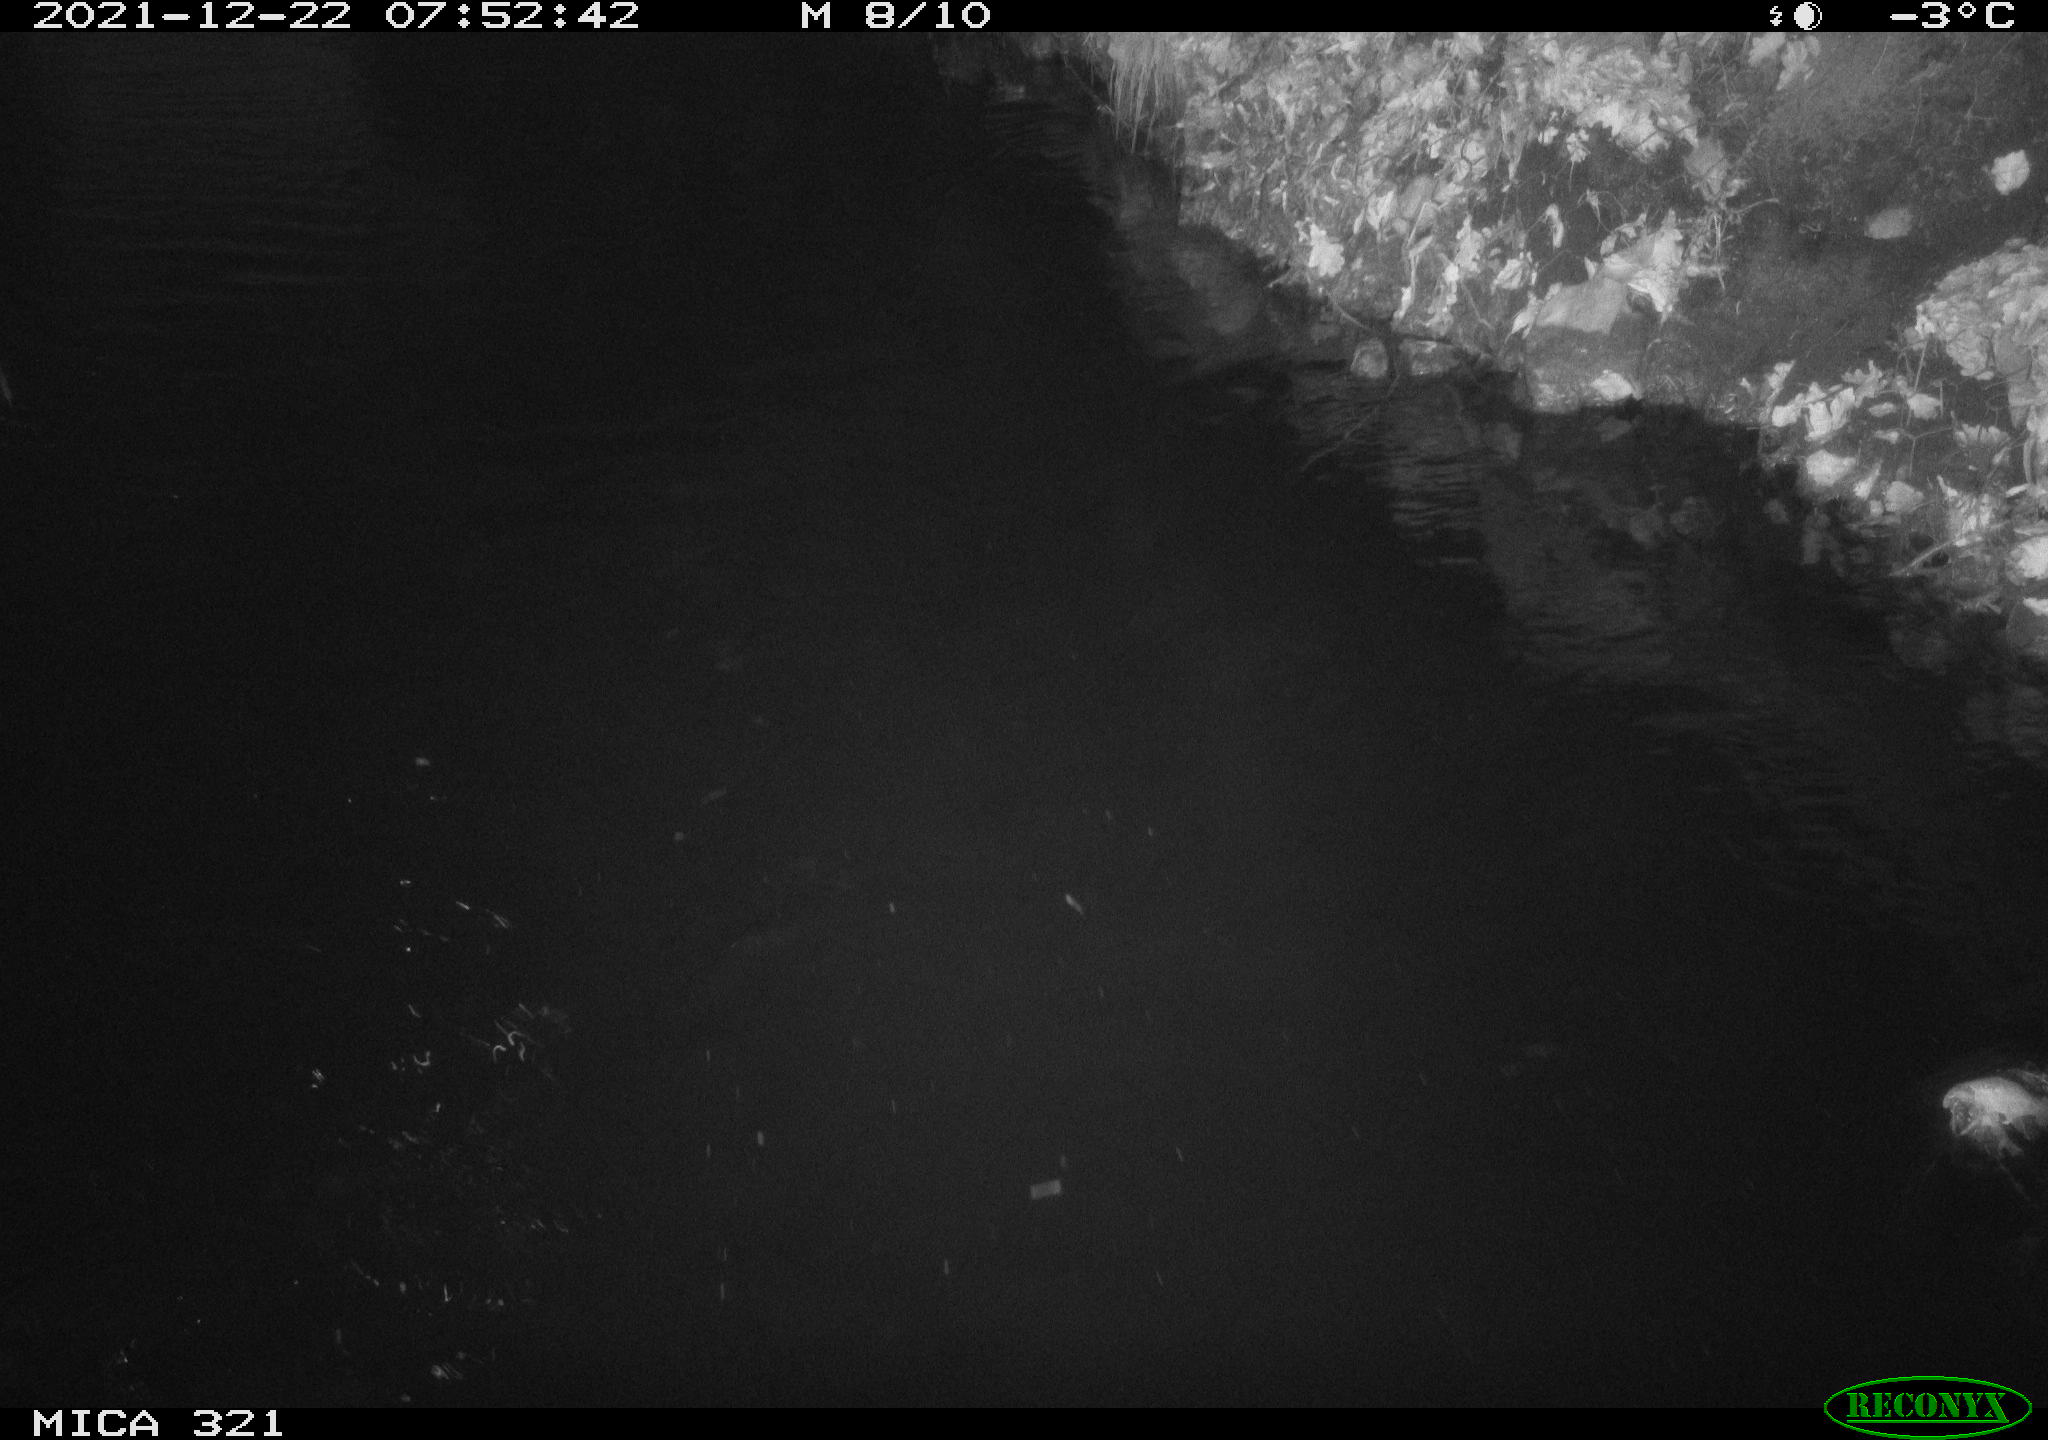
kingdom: Animalia
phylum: Chordata
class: Aves
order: Anseriformes
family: Anatidae
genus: Anas
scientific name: Anas
